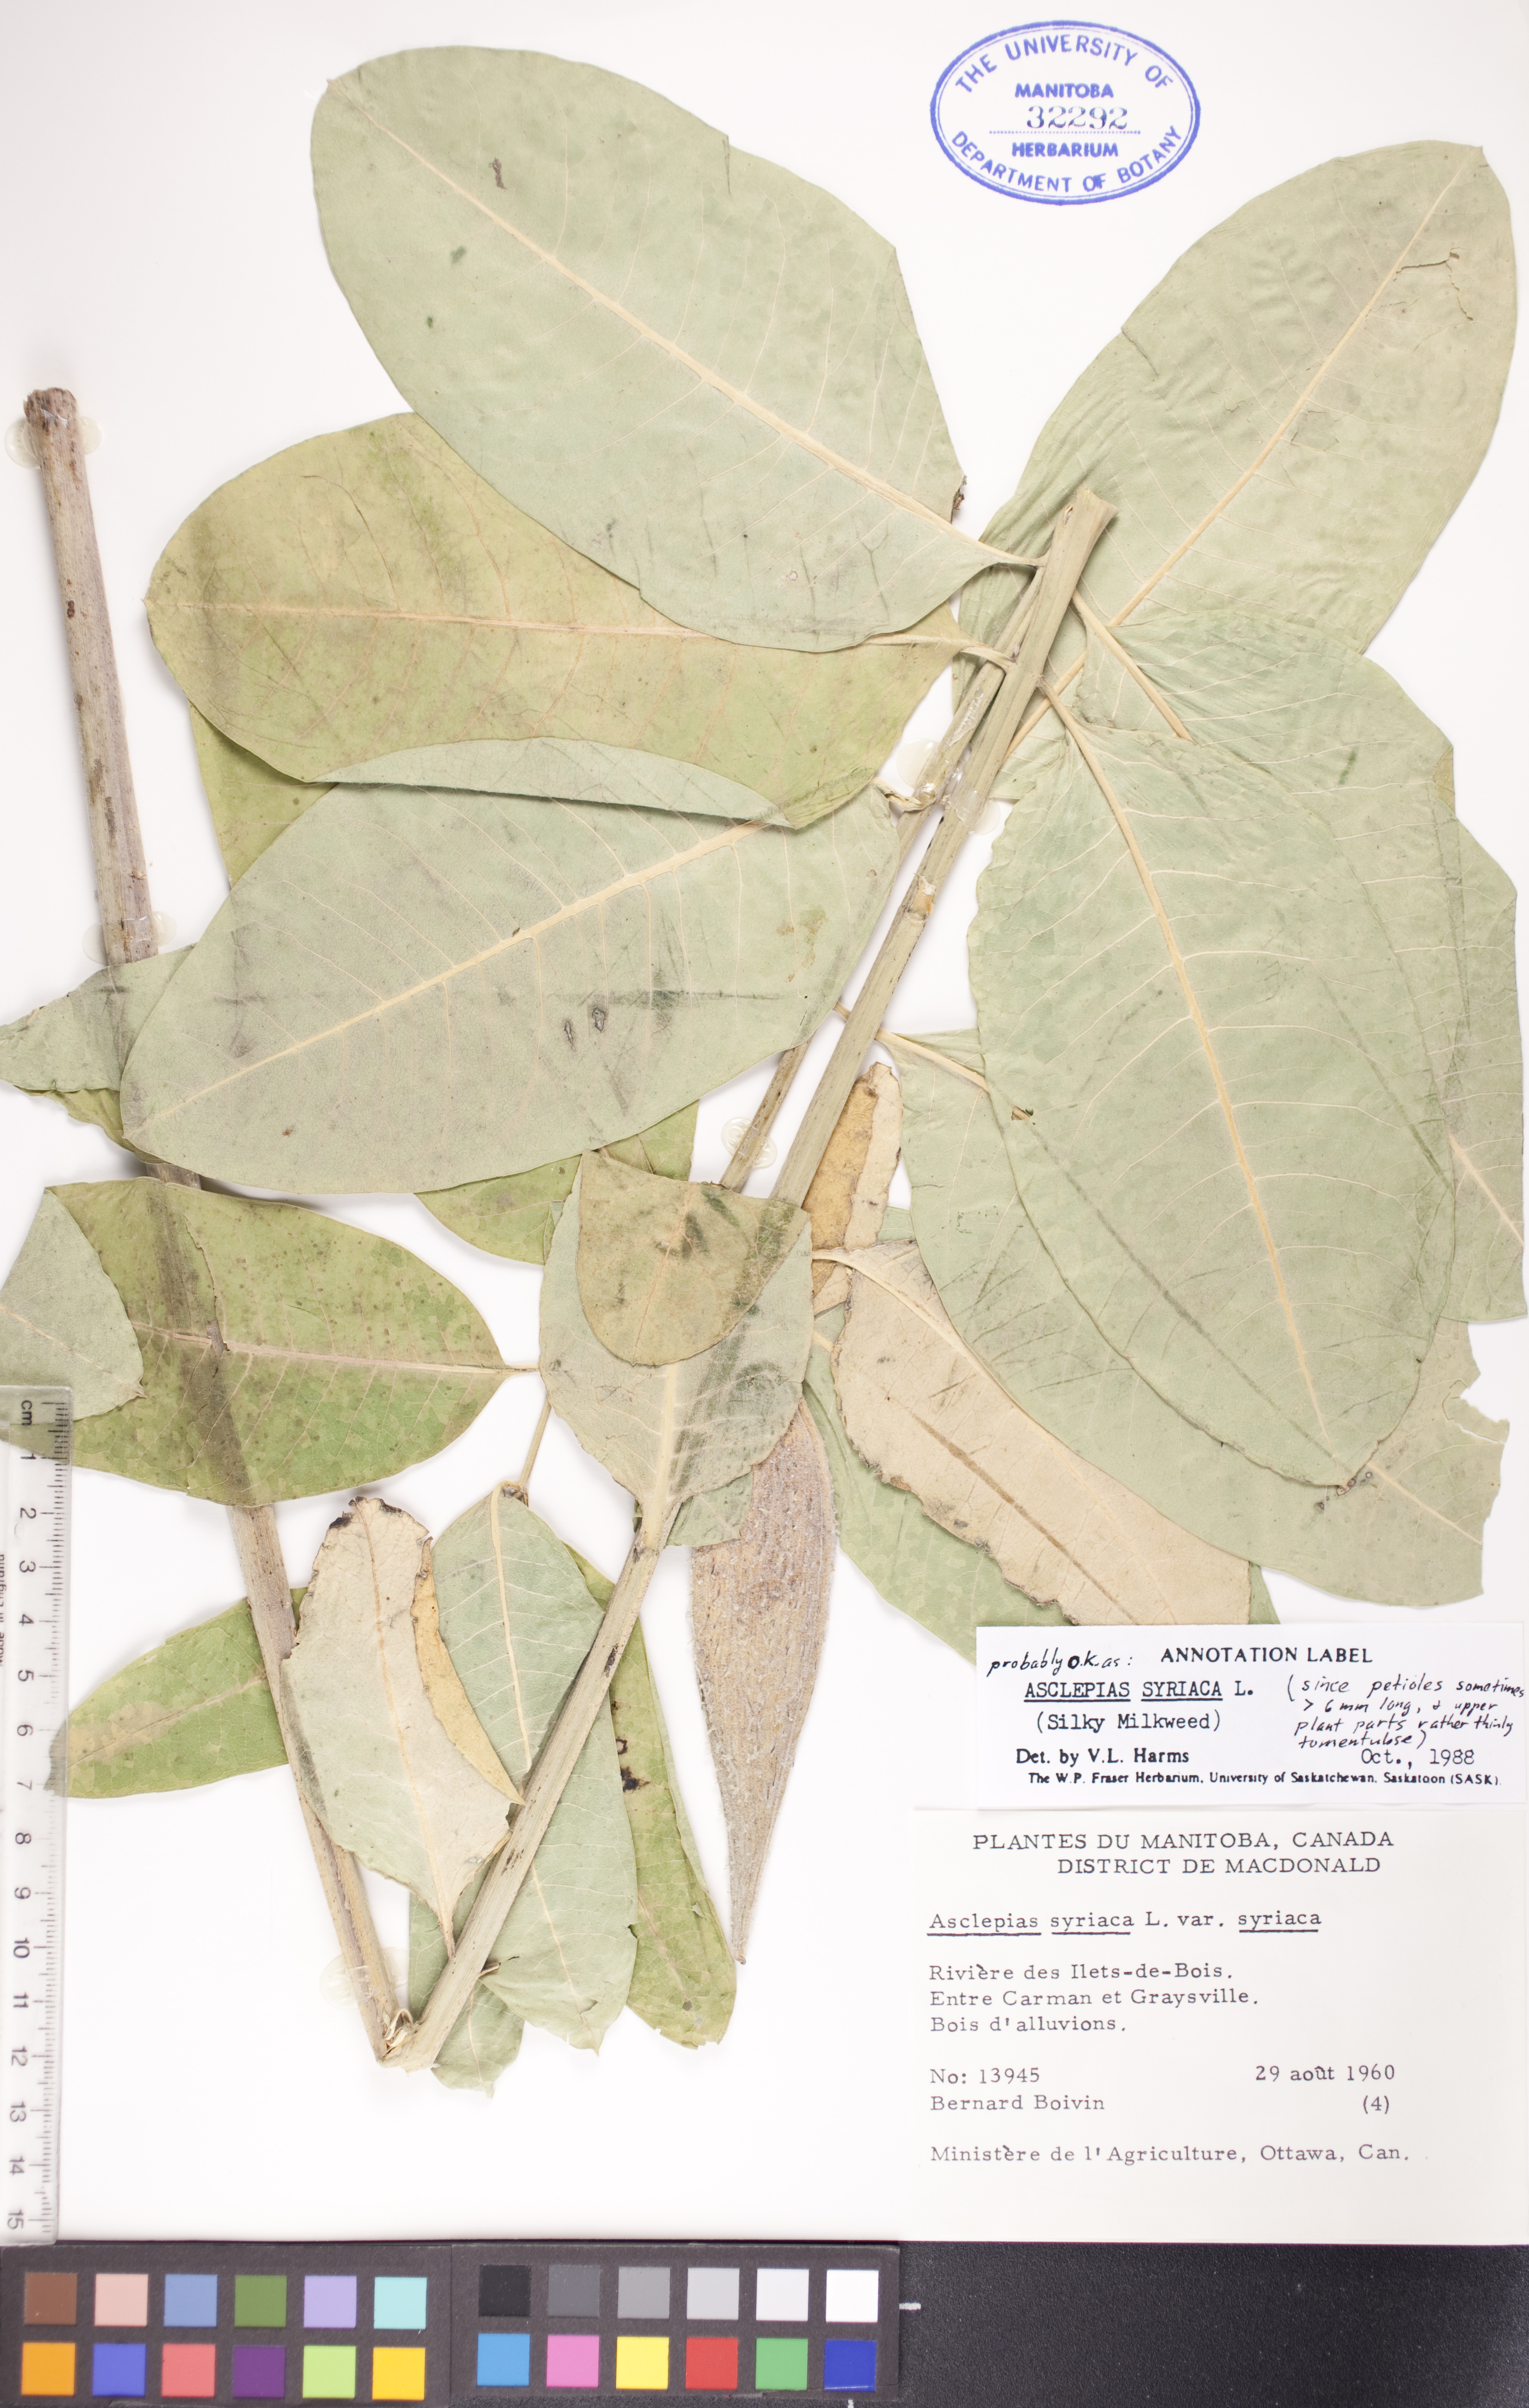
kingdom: Plantae
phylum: Tracheophyta
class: Magnoliopsida
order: Gentianales
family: Apocynaceae
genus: Asclepias
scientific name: Asclepias syriaca
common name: Common milkweed
